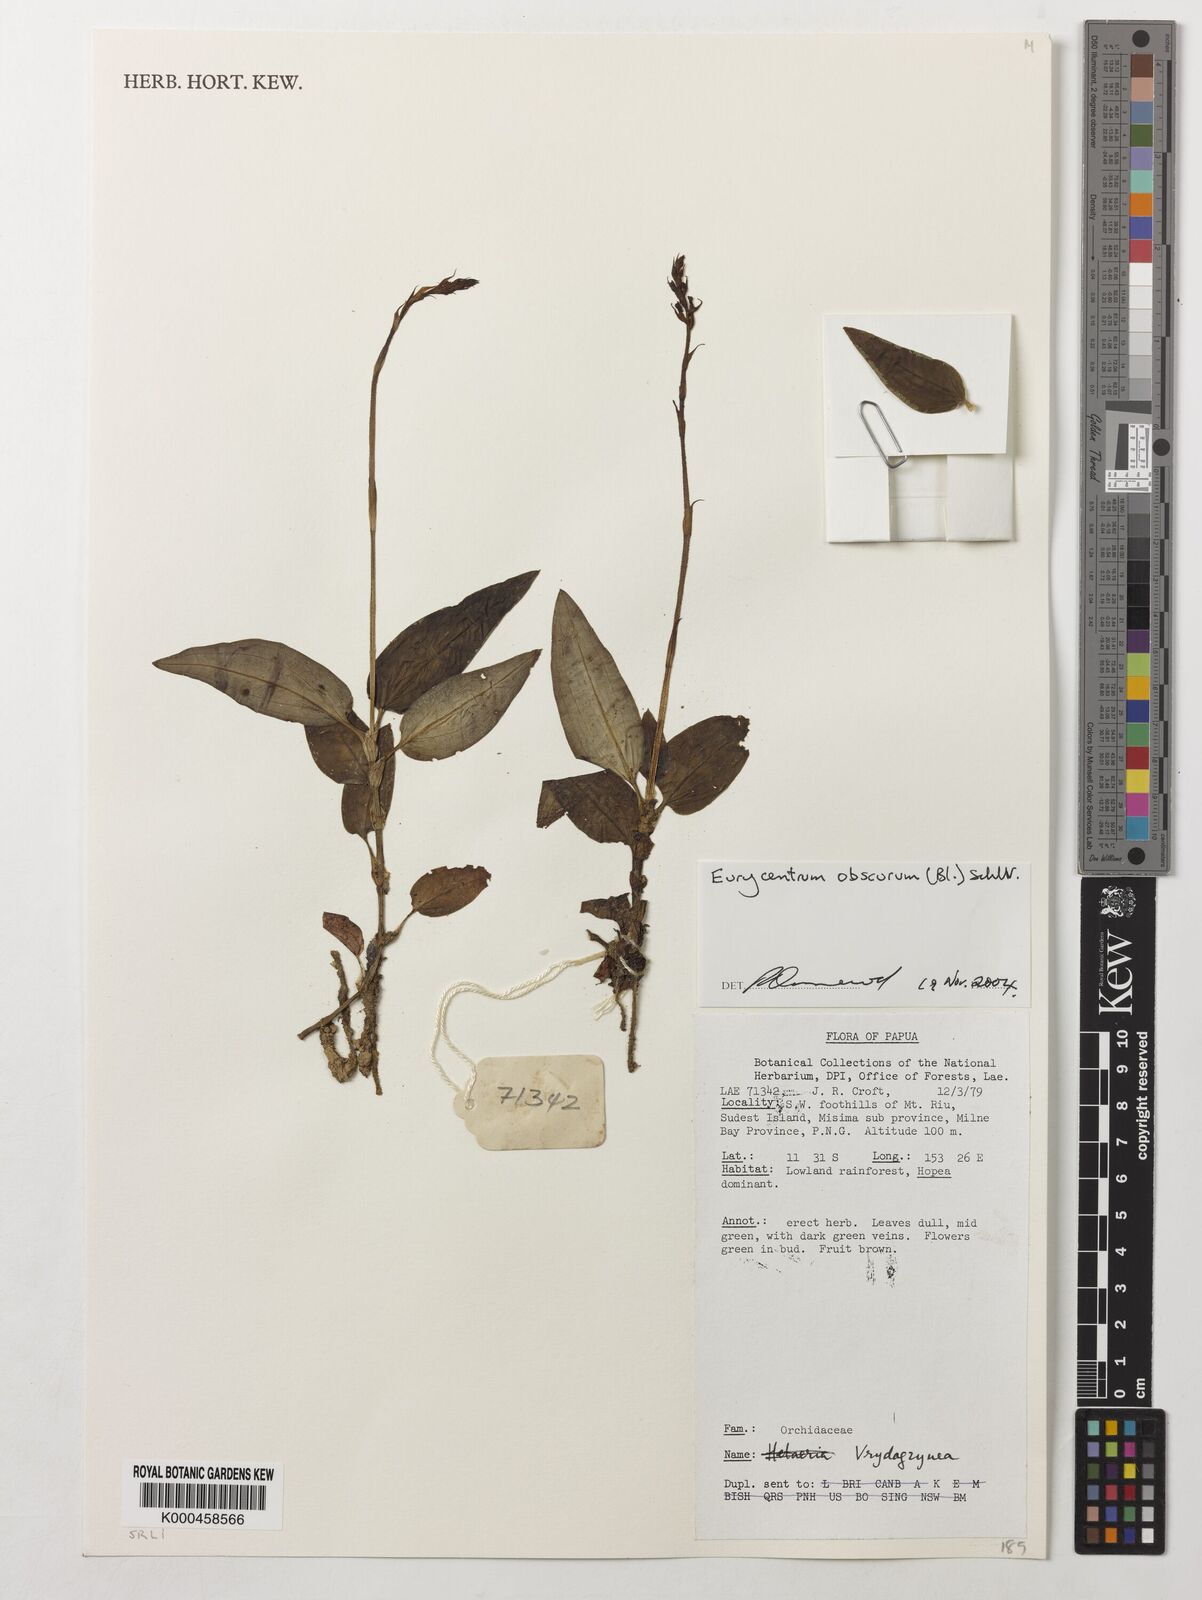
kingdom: Plantae
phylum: Tracheophyta
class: Liliopsida
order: Asparagales
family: Orchidaceae
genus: Eurycentrum
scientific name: Eurycentrum obscurum
